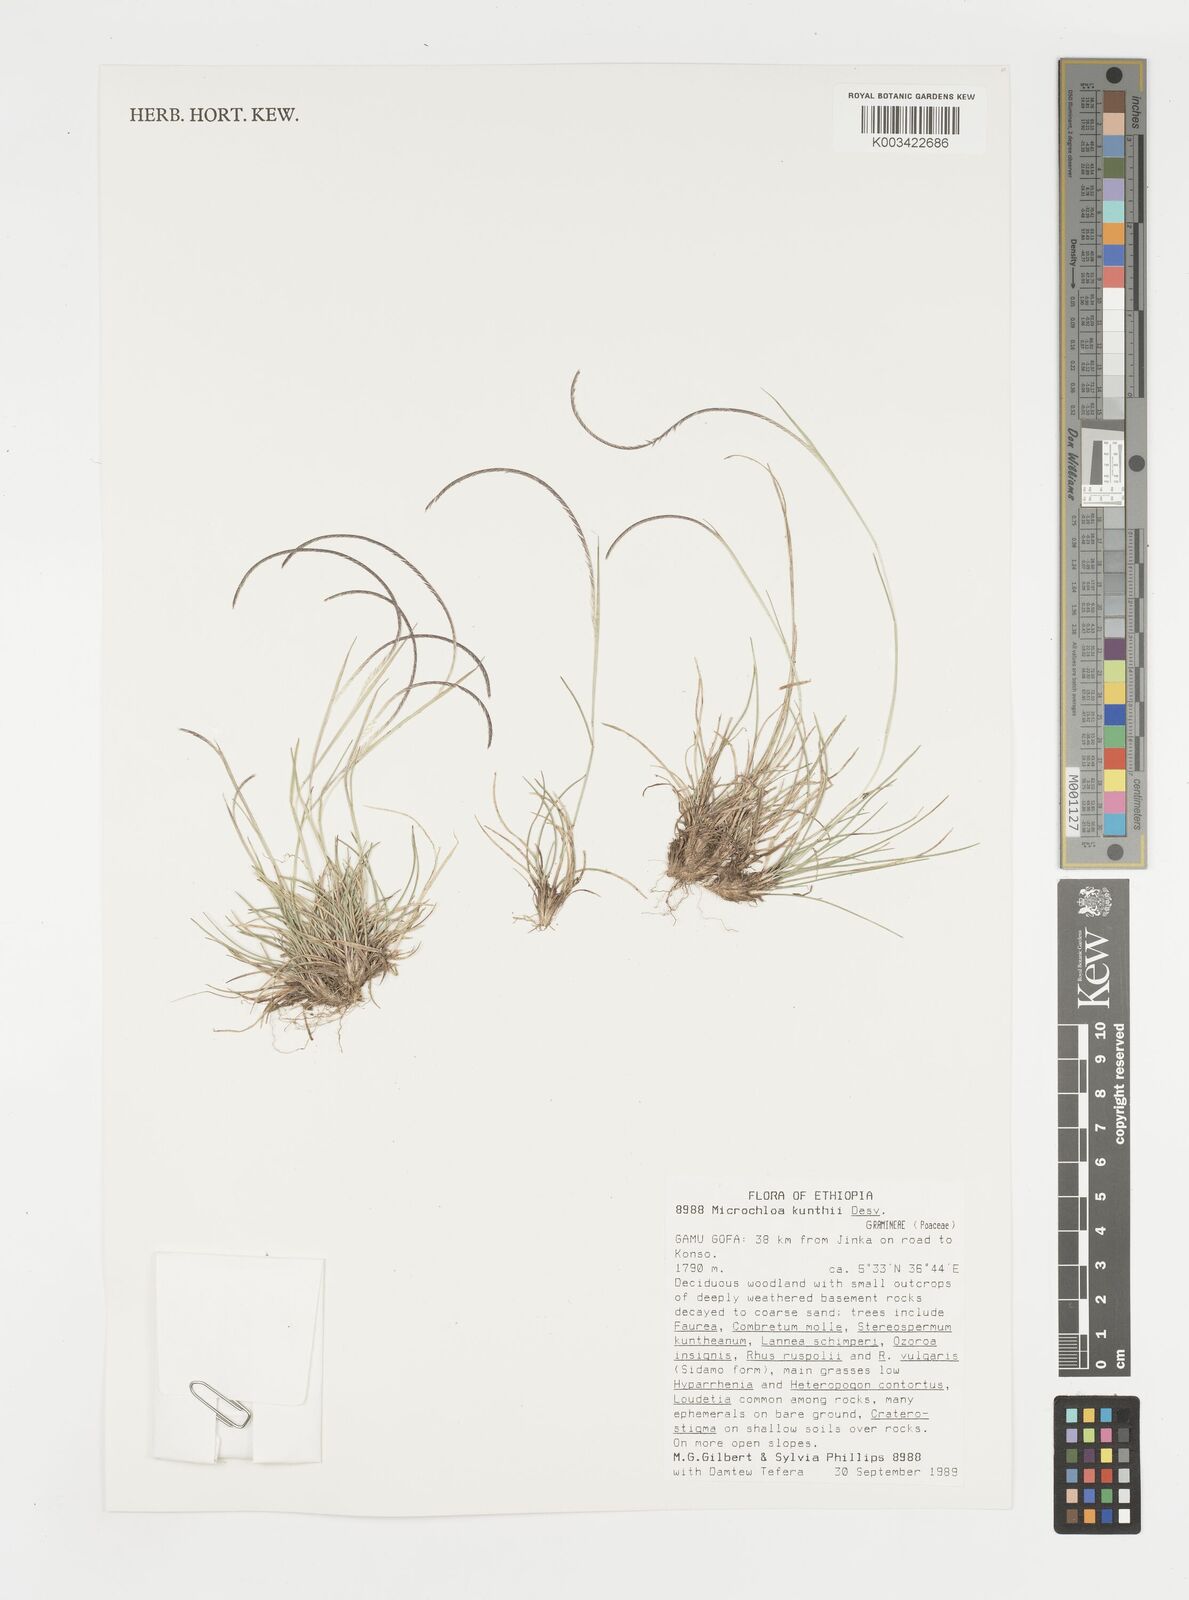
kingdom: Plantae
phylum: Tracheophyta
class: Liliopsida
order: Poales
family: Poaceae
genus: Microchloa
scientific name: Microchloa kunthii
